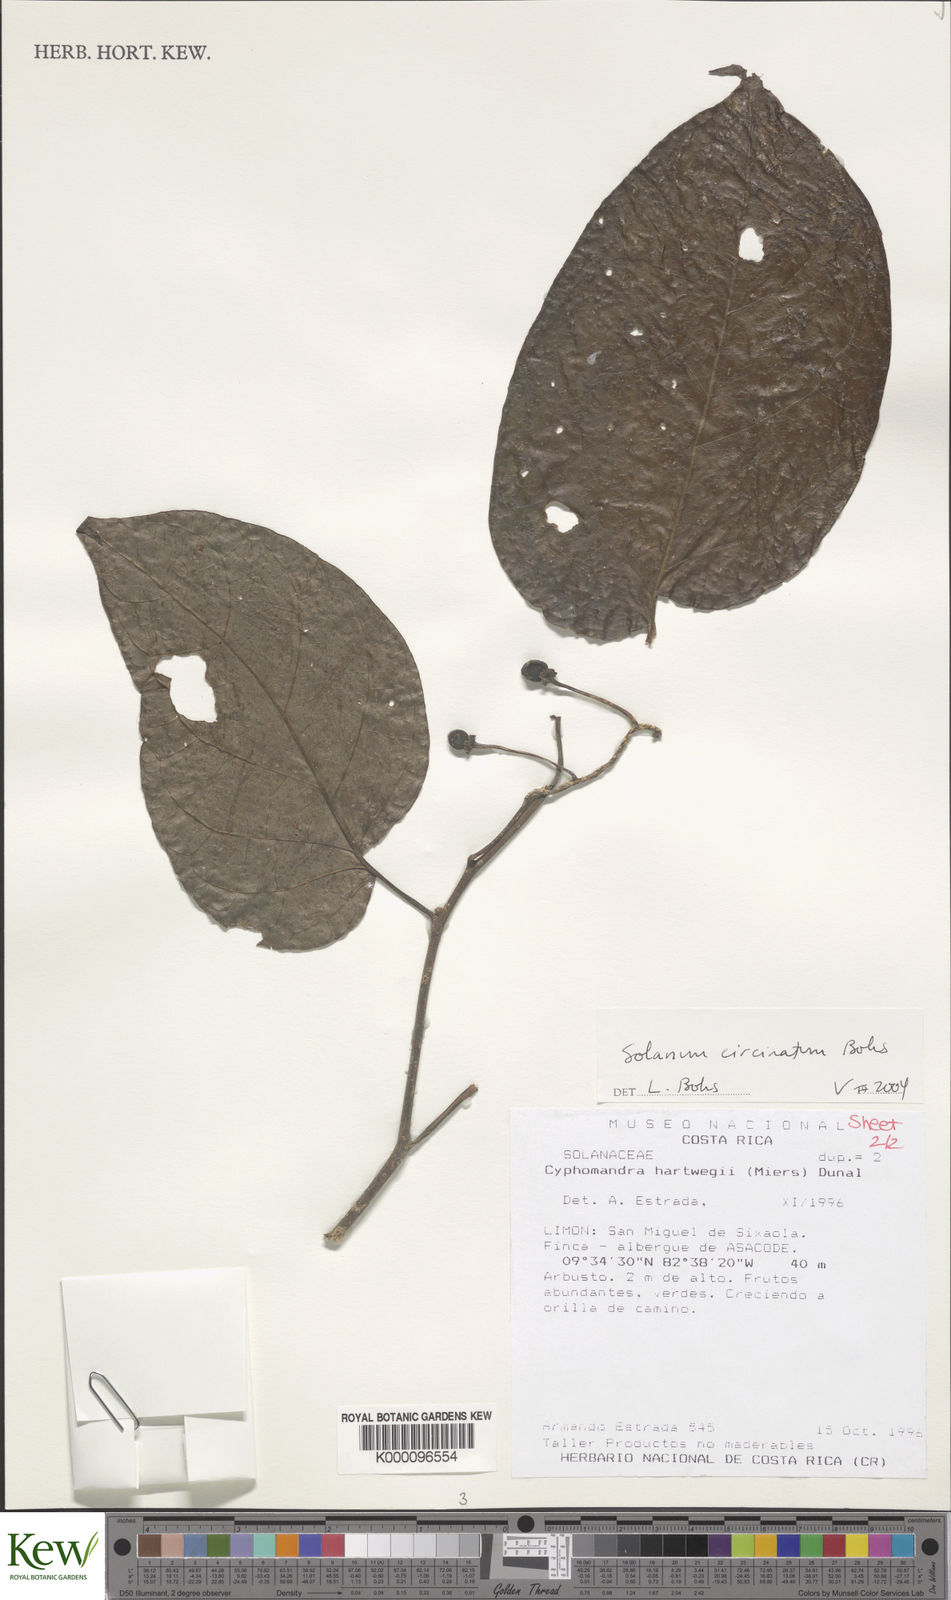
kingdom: Plantae
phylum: Tracheophyta
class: Magnoliopsida
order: Solanales
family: Solanaceae
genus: Solanum
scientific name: Solanum splendens
